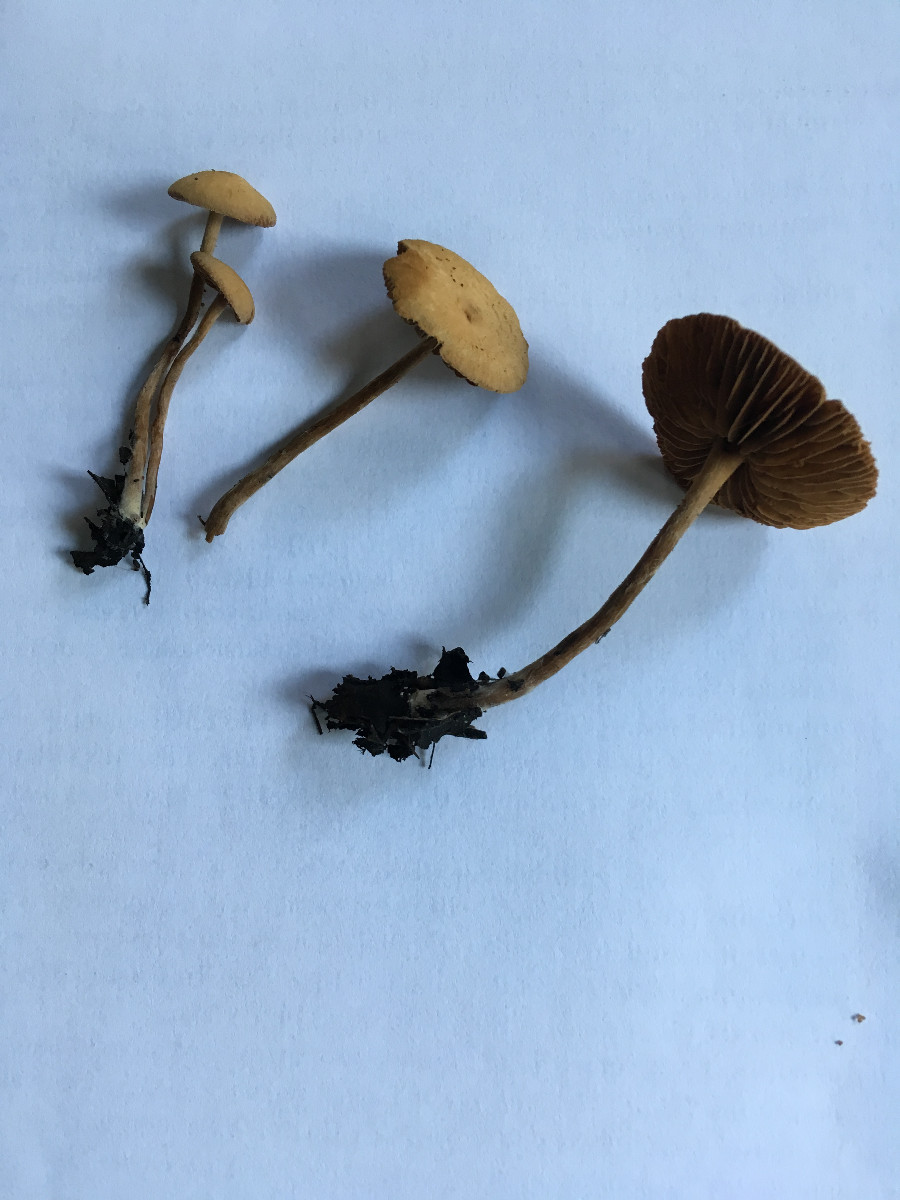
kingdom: Fungi
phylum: Basidiomycota
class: Agaricomycetes
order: Agaricales
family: Hymenogastraceae
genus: Naucoria
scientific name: Naucoria escharioides
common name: lys elle-knaphat
